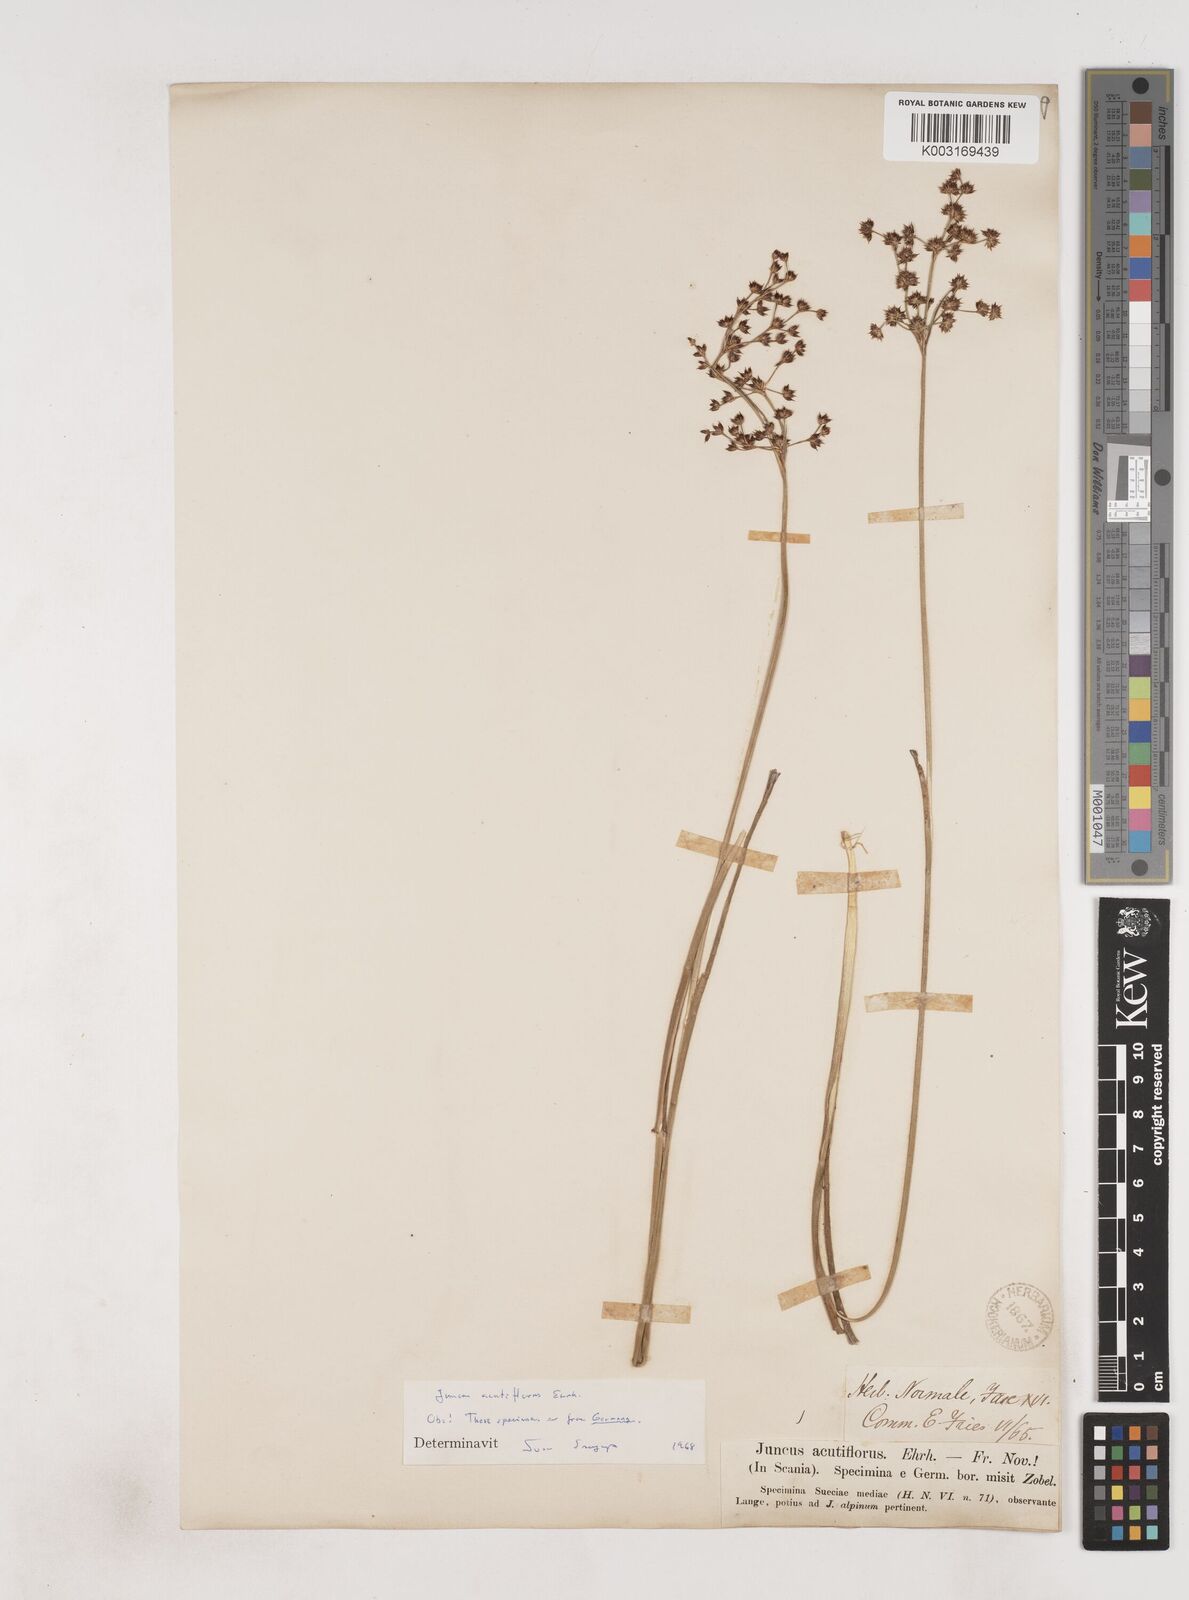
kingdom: Plantae
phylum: Tracheophyta
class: Liliopsida
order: Poales
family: Juncaceae
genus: Juncus
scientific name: Juncus acutiflorus
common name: Sharp-flowered rush
